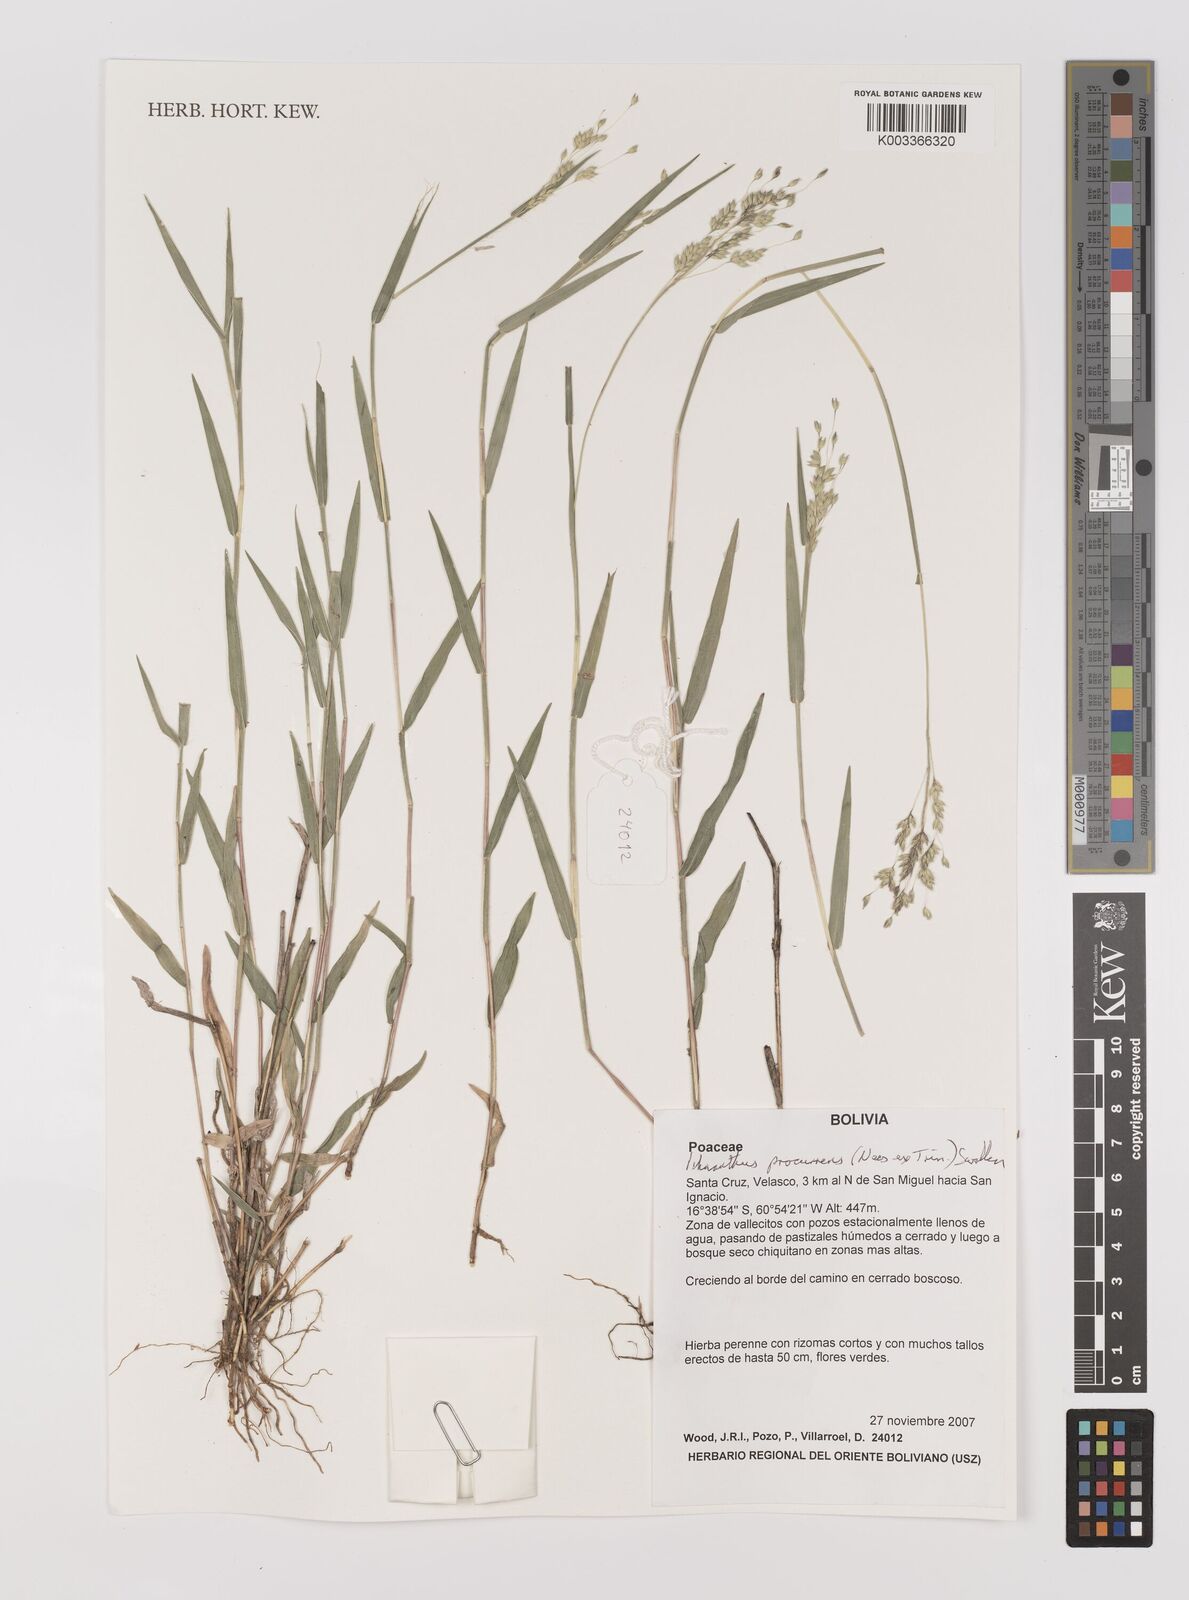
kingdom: Plantae
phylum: Tracheophyta
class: Liliopsida
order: Poales
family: Poaceae
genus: Oedochloa
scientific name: Oedochloa procurrens
